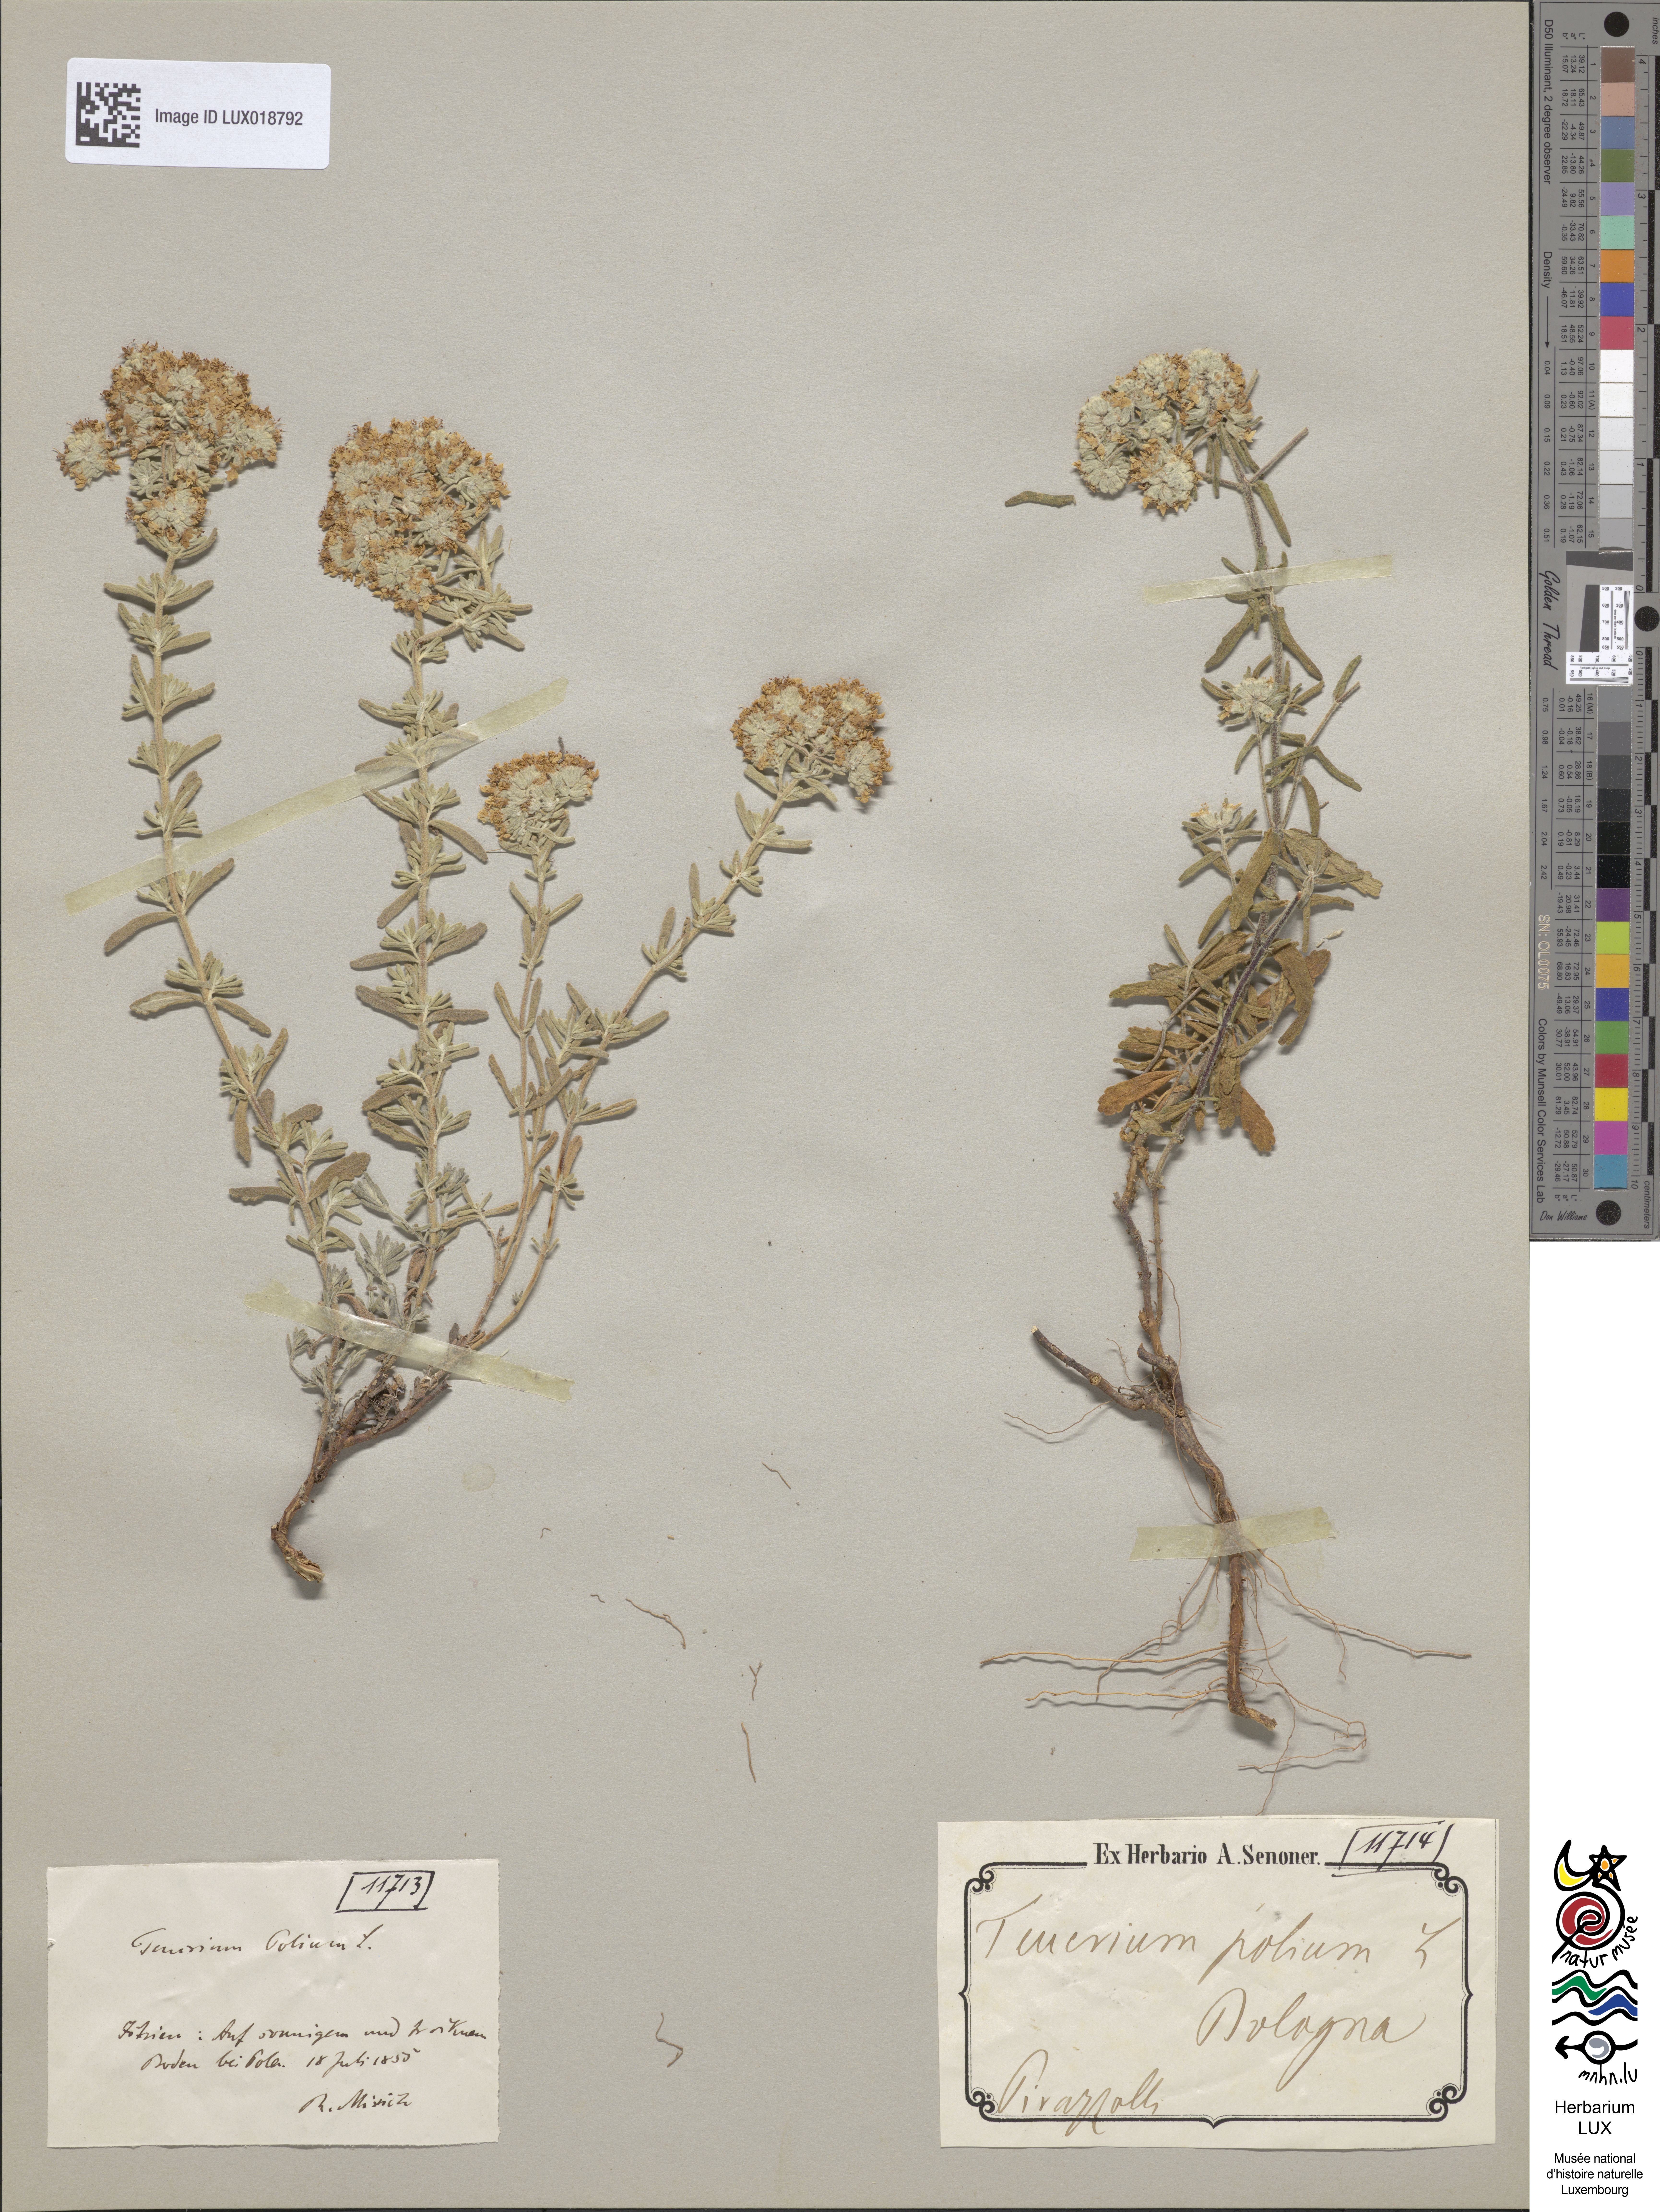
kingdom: Plantae
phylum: Tracheophyta
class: Magnoliopsida
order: Lamiales
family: Lamiaceae
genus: Teucrium
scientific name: Teucrium polium
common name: Poley
